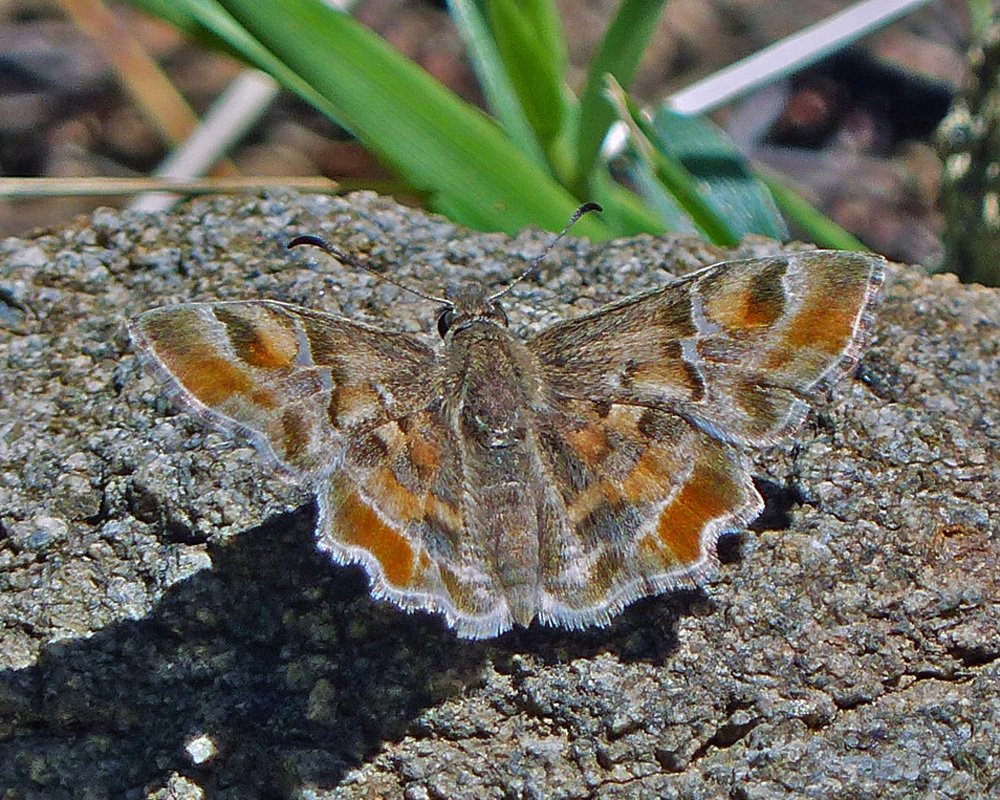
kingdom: Animalia
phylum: Arthropoda
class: Insecta
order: Lepidoptera
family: Hesperiidae
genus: Systasea
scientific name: Systasea zampa
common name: Arizona Powdered-Skipper
